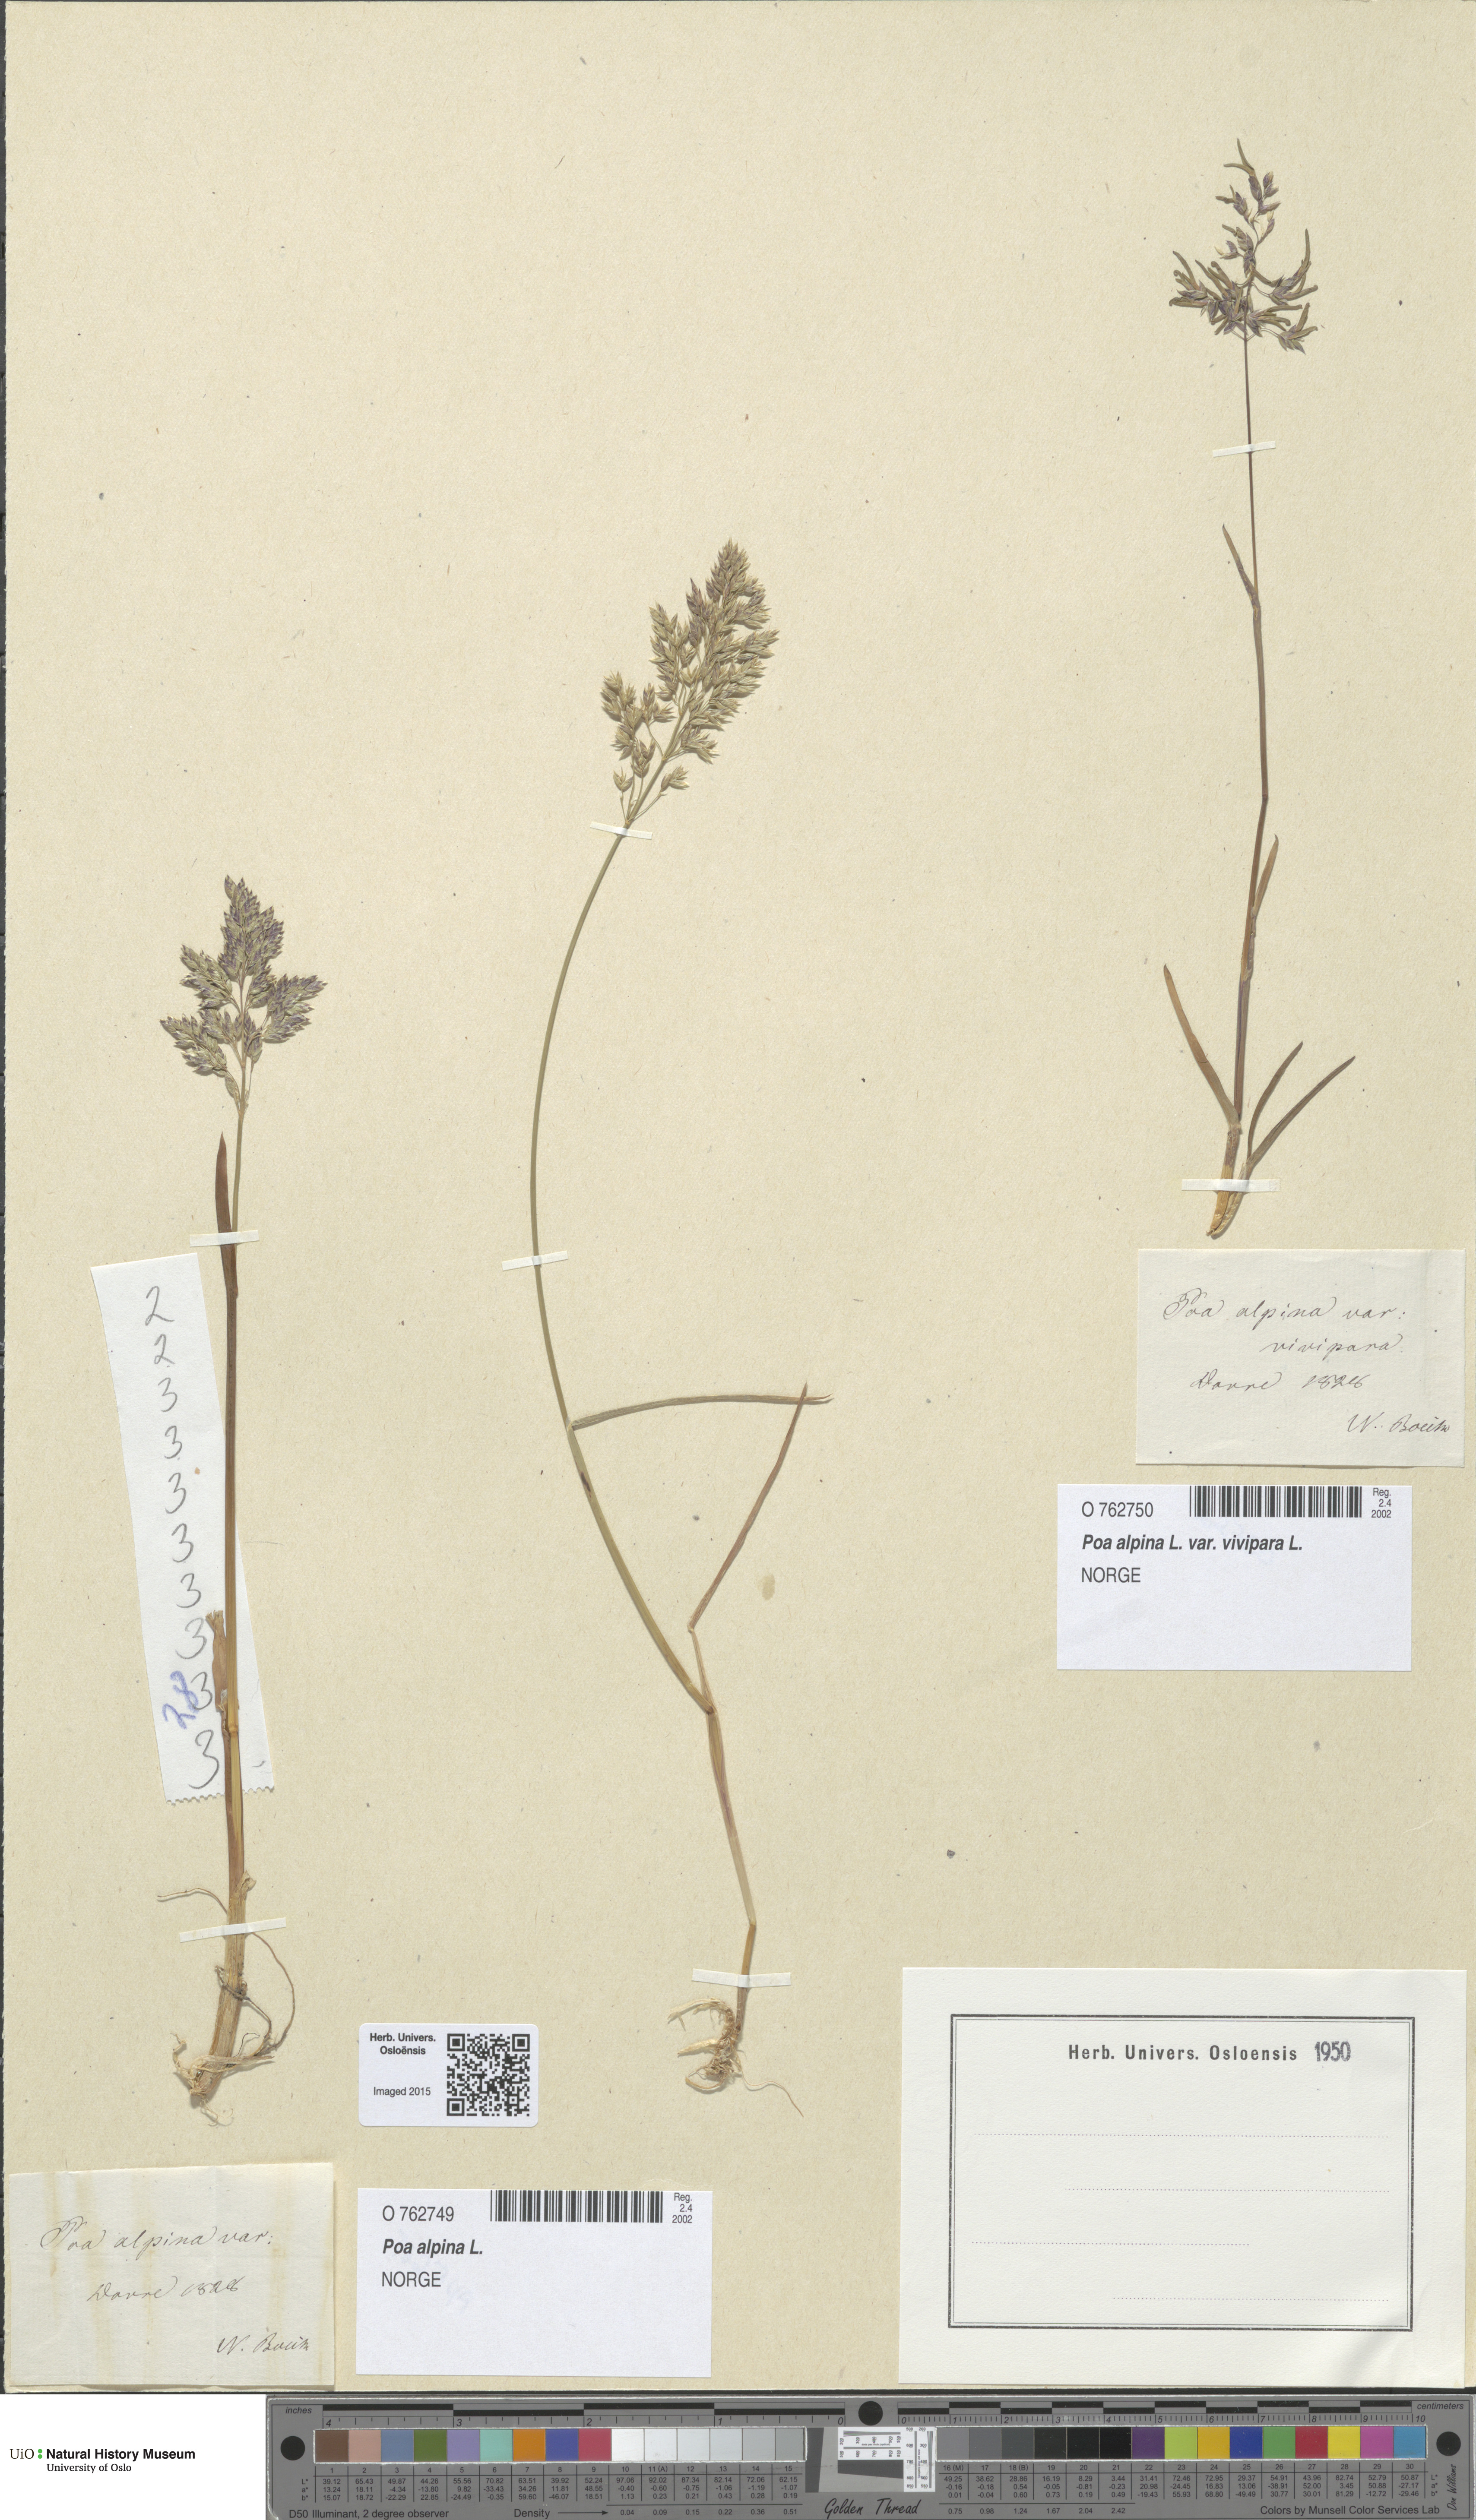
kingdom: Plantae
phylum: Tracheophyta
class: Liliopsida
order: Poales
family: Poaceae
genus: Poa
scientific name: Poa alpina
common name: Alpine bluegrass
